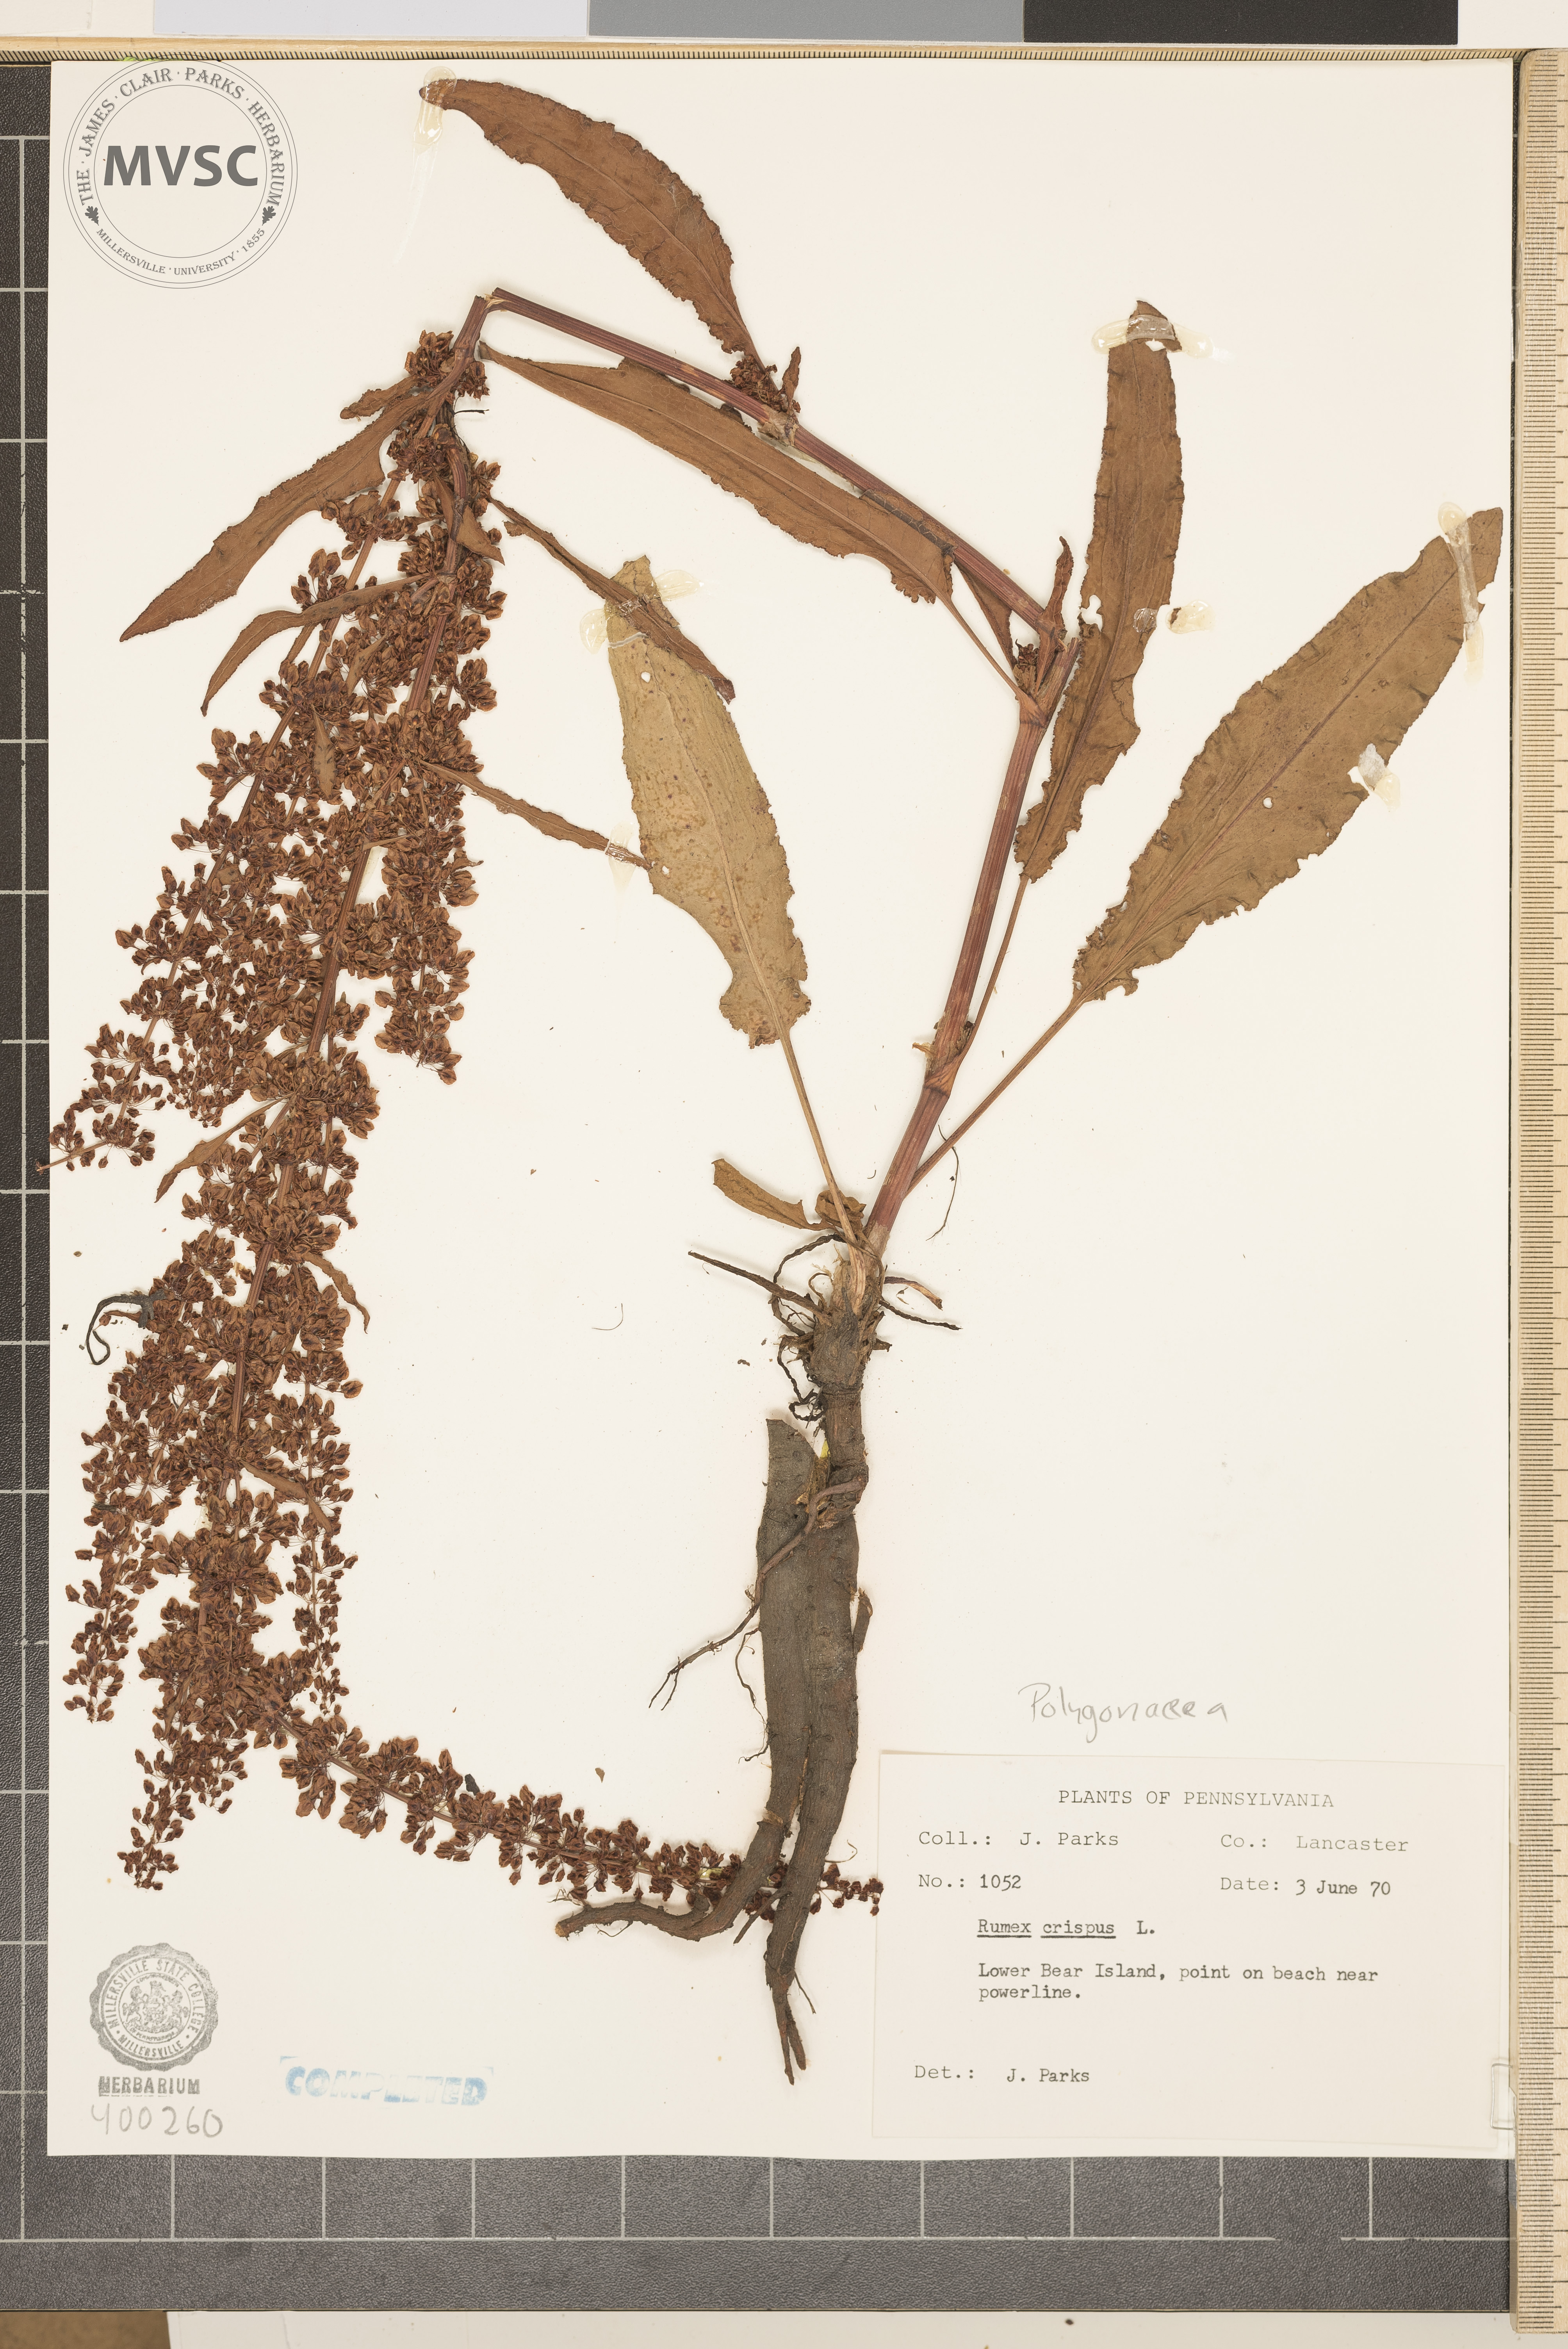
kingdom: Plantae
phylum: Tracheophyta
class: Magnoliopsida
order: Caryophyllales
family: Polygonaceae
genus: Rumex
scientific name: Rumex crispus
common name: curly dock
